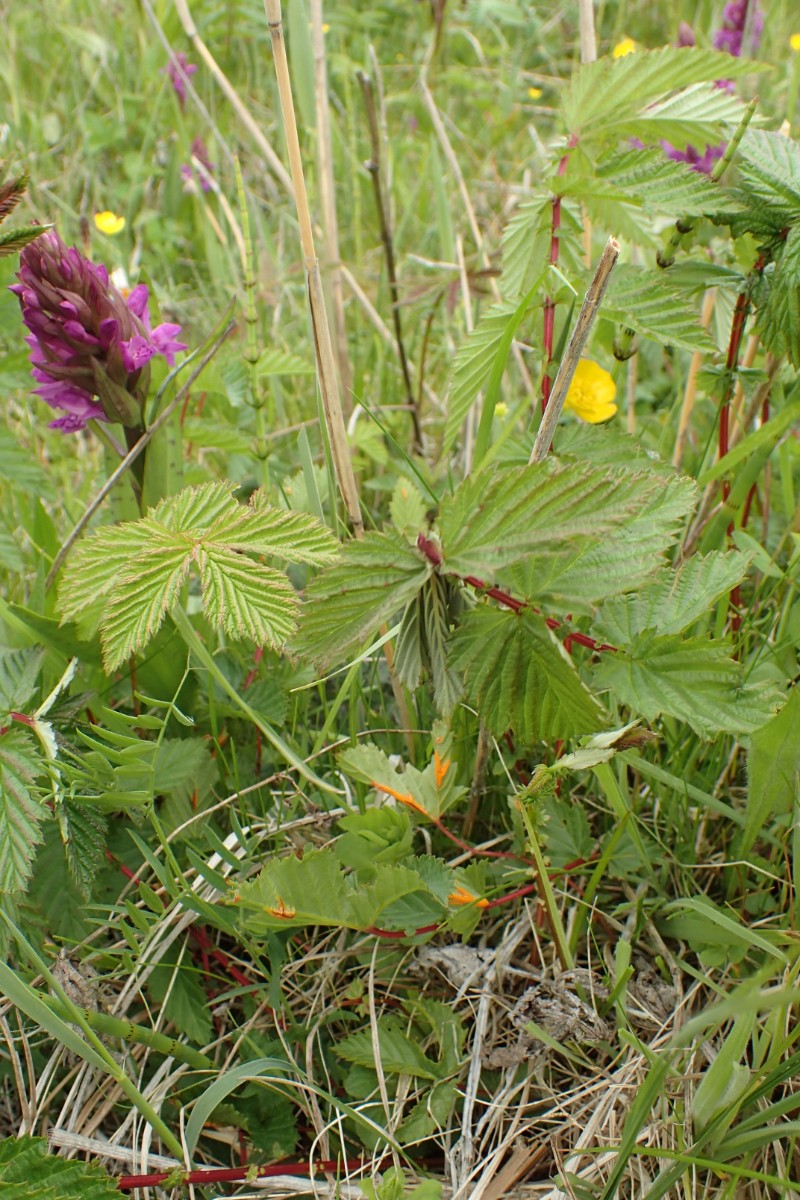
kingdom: Fungi
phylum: Basidiomycota
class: Pucciniomycetes
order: Pucciniales
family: Raveneliaceae
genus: Triphragmium
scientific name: Triphragmium ulmariae
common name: almindelig mjødurtrust
